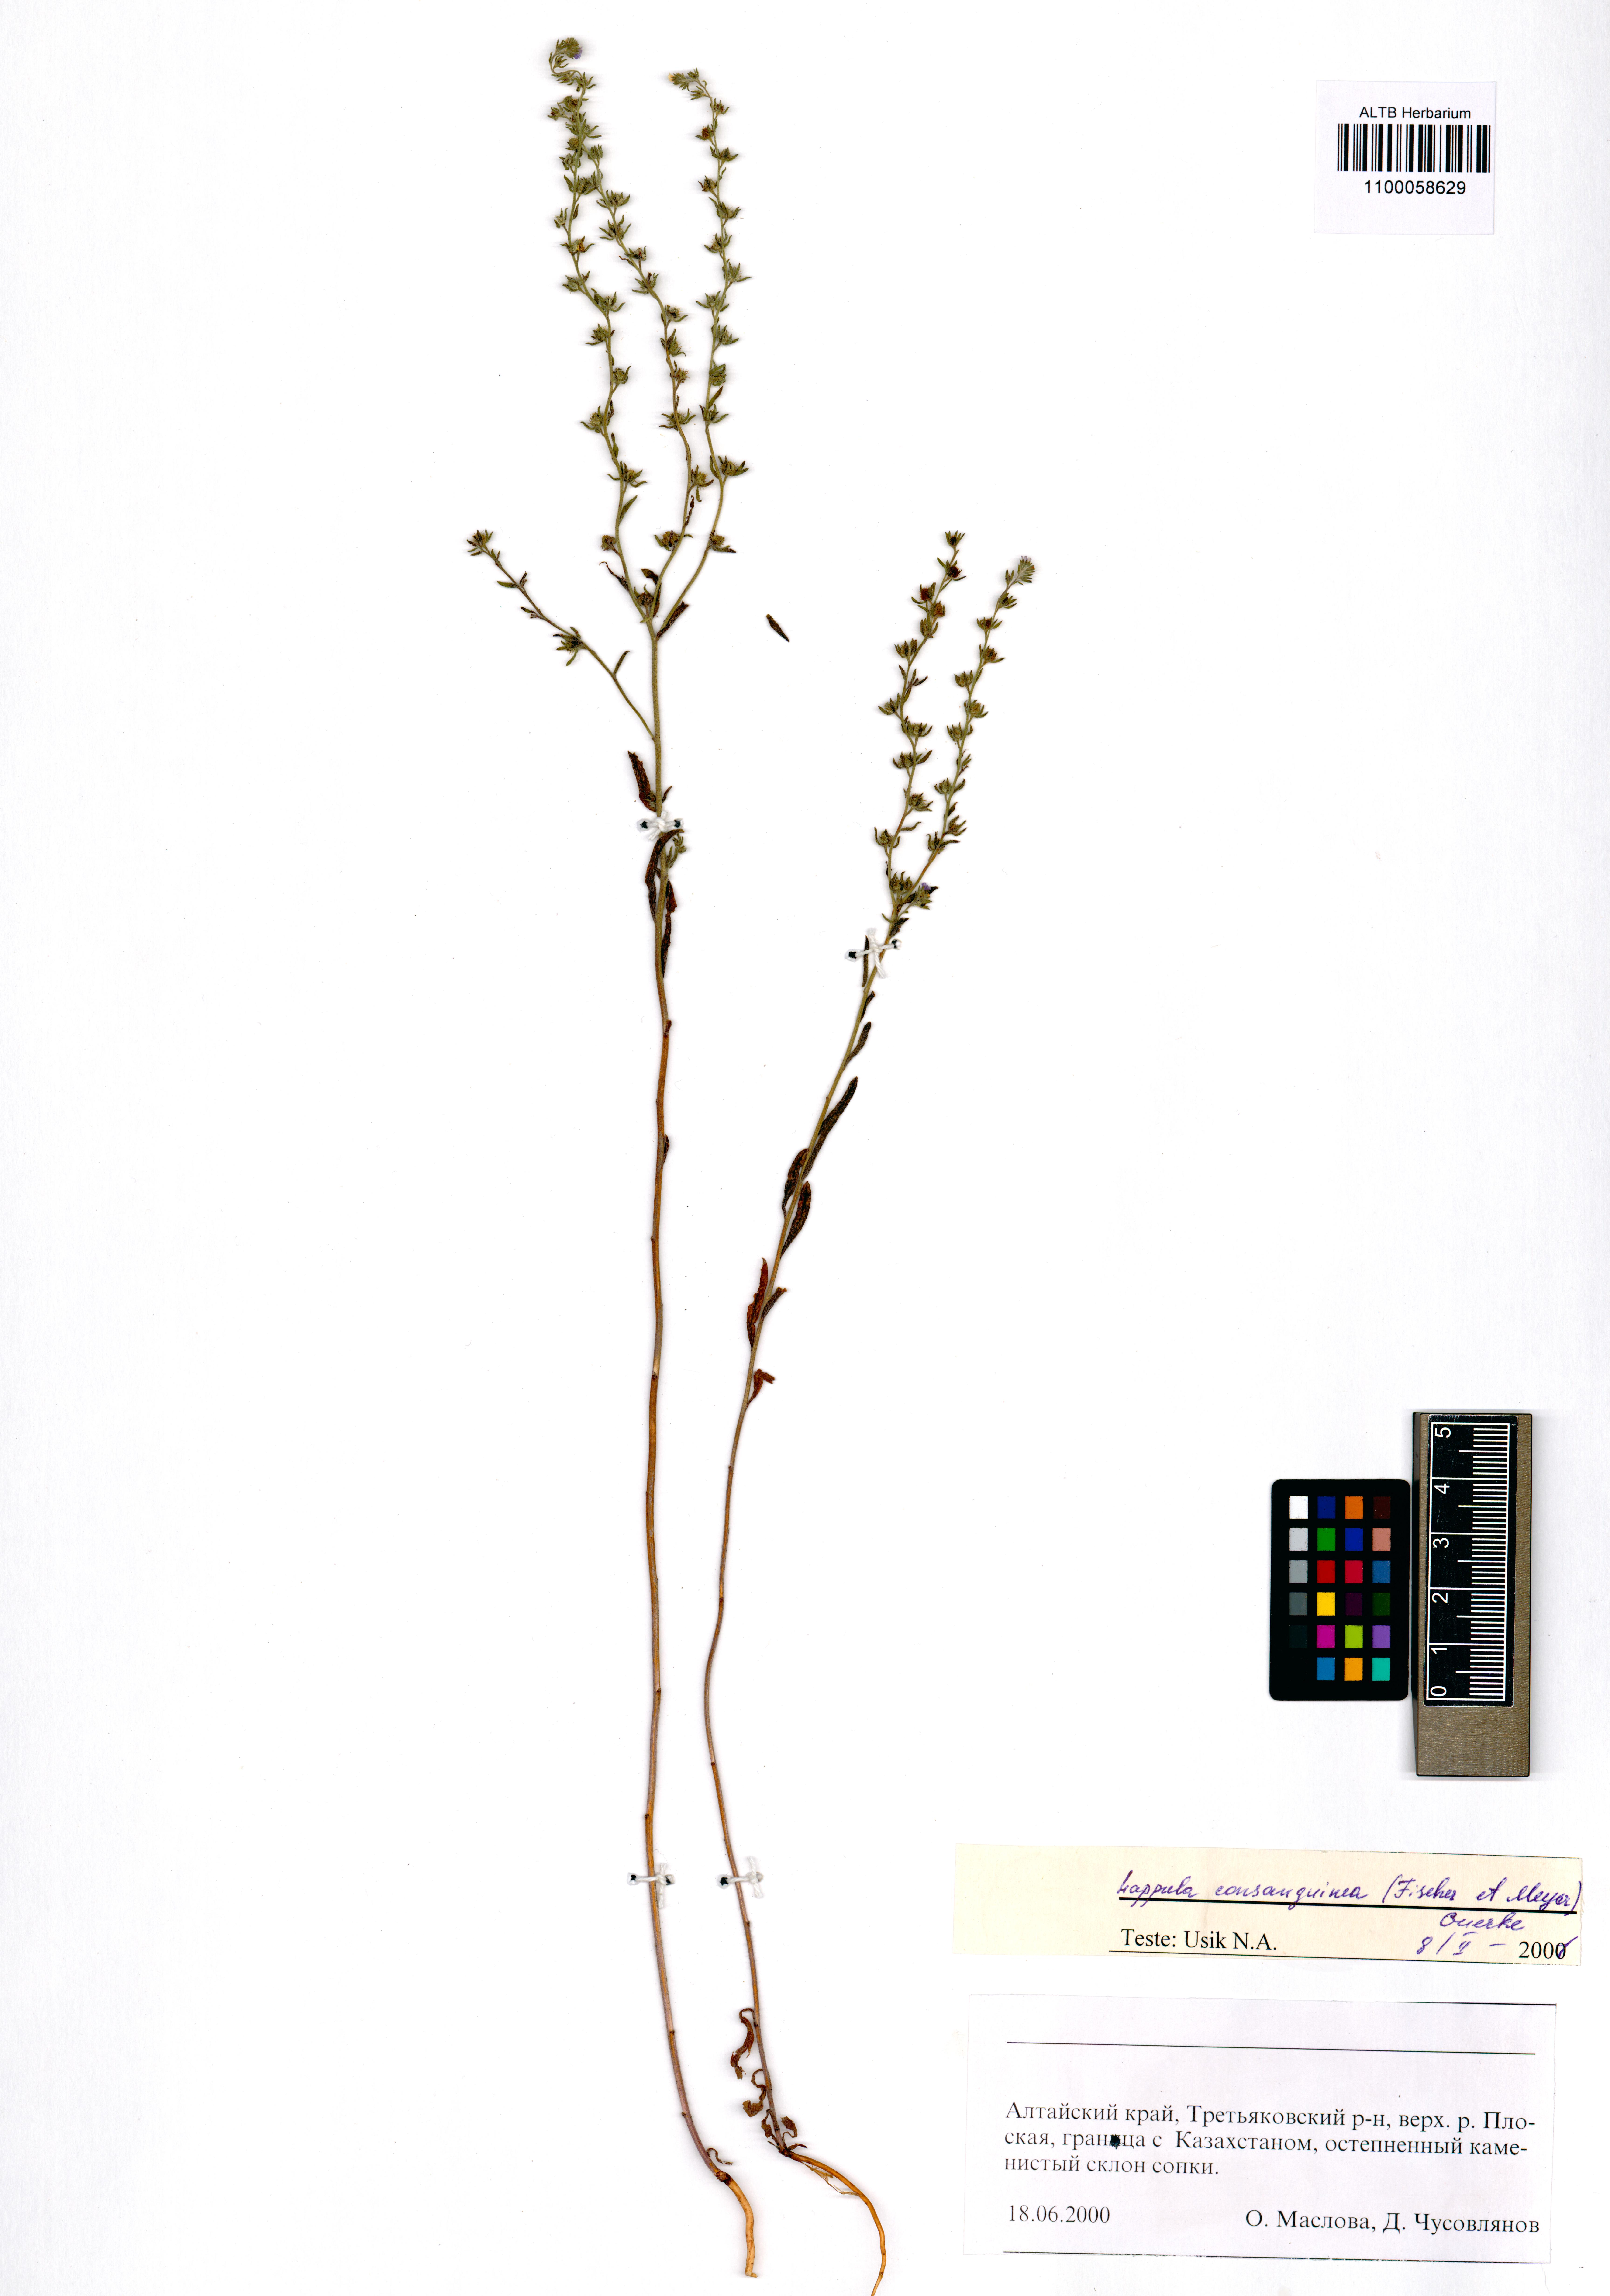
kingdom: Plantae
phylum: Tracheophyta
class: Magnoliopsida
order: Boraginales
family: Boraginaceae
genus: Lappula
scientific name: Lappula squarrosa
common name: European stickseed
